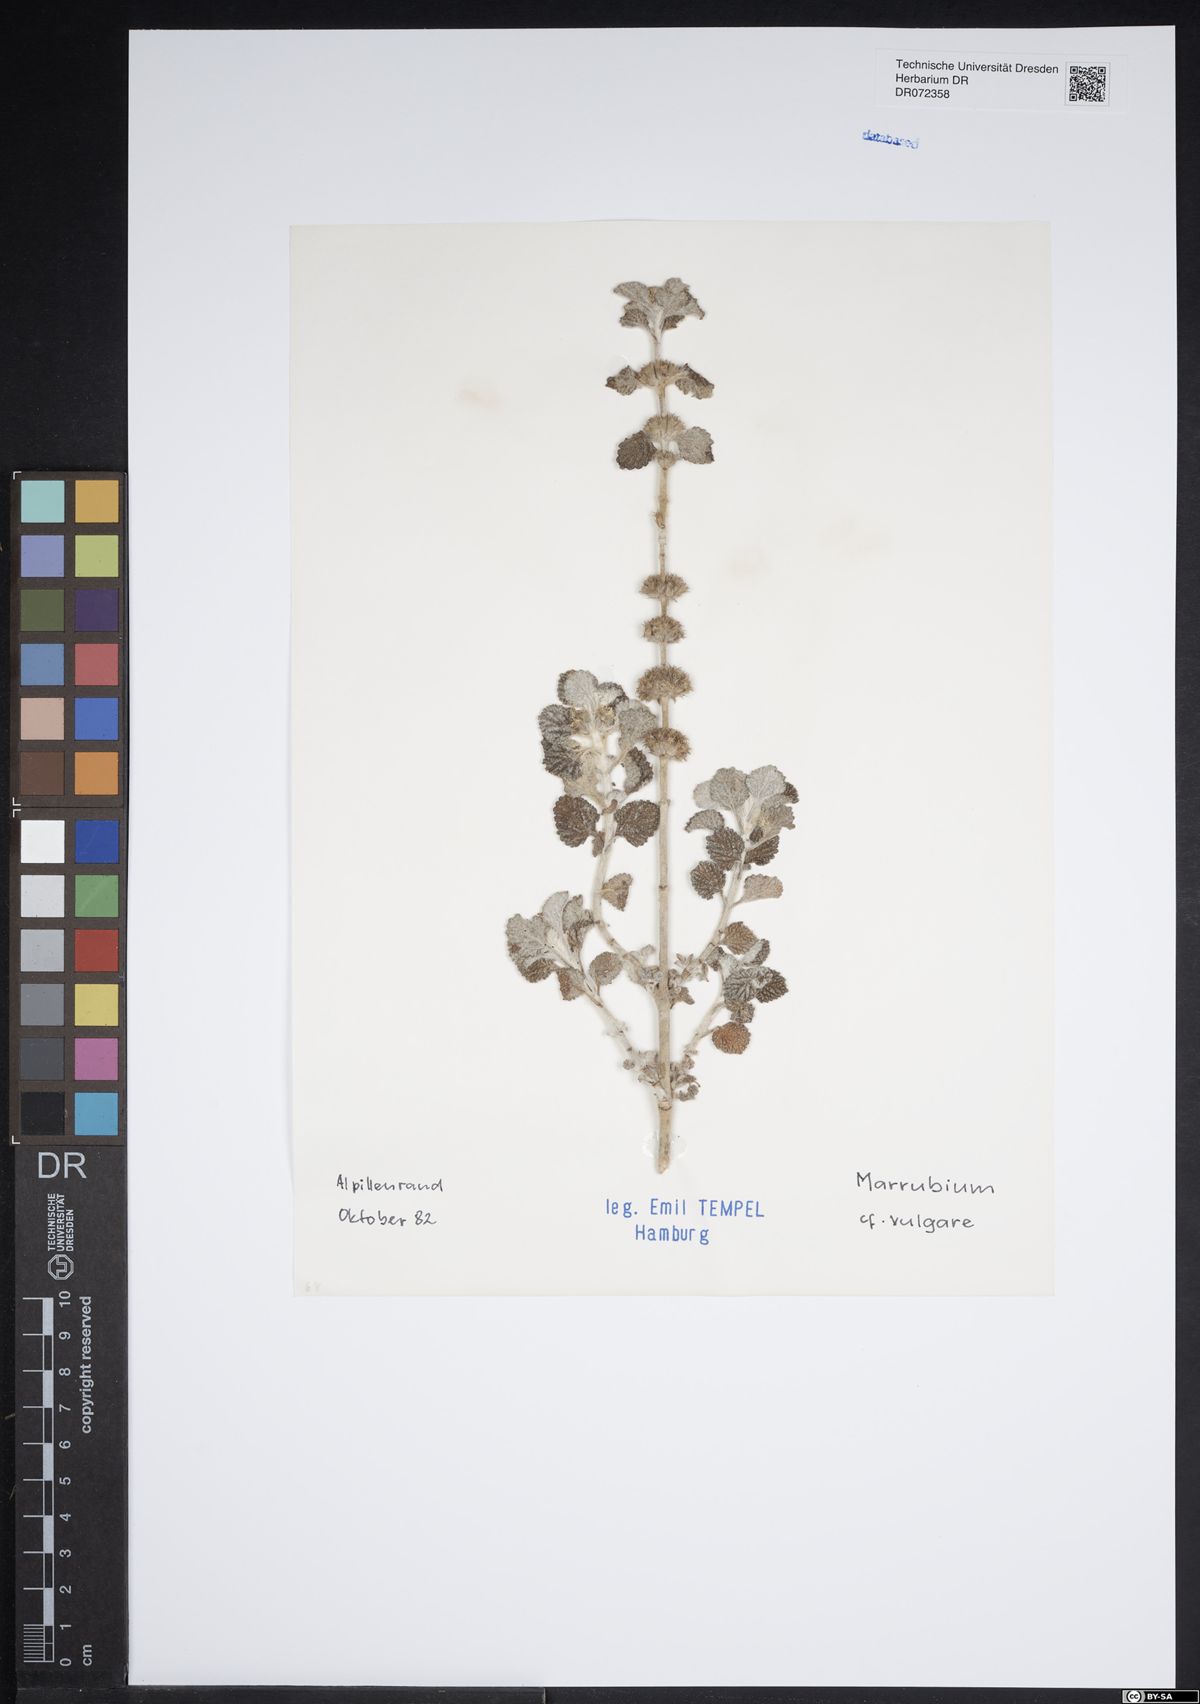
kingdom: Plantae
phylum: Tracheophyta
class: Magnoliopsida
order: Lamiales
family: Lamiaceae
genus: Marrubium
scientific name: Marrubium vulgare
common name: Horehound
